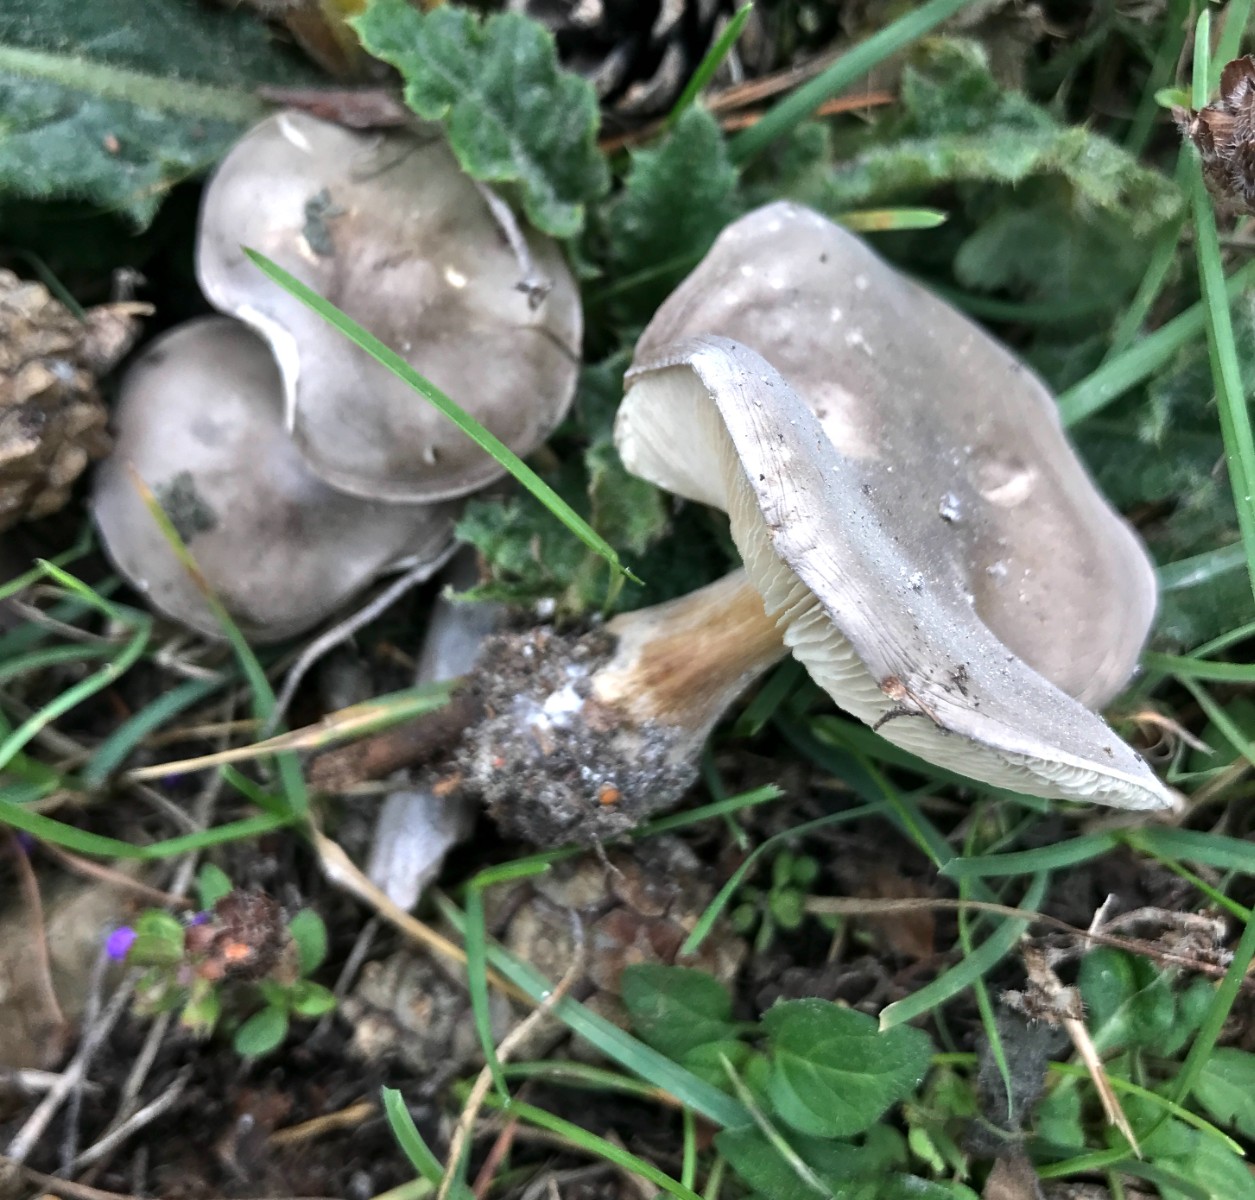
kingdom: Fungi
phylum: Basidiomycota
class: Agaricomycetes
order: Agaricales
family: Tricholomataceae
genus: Melanoleuca
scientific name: Melanoleuca
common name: munkehat
